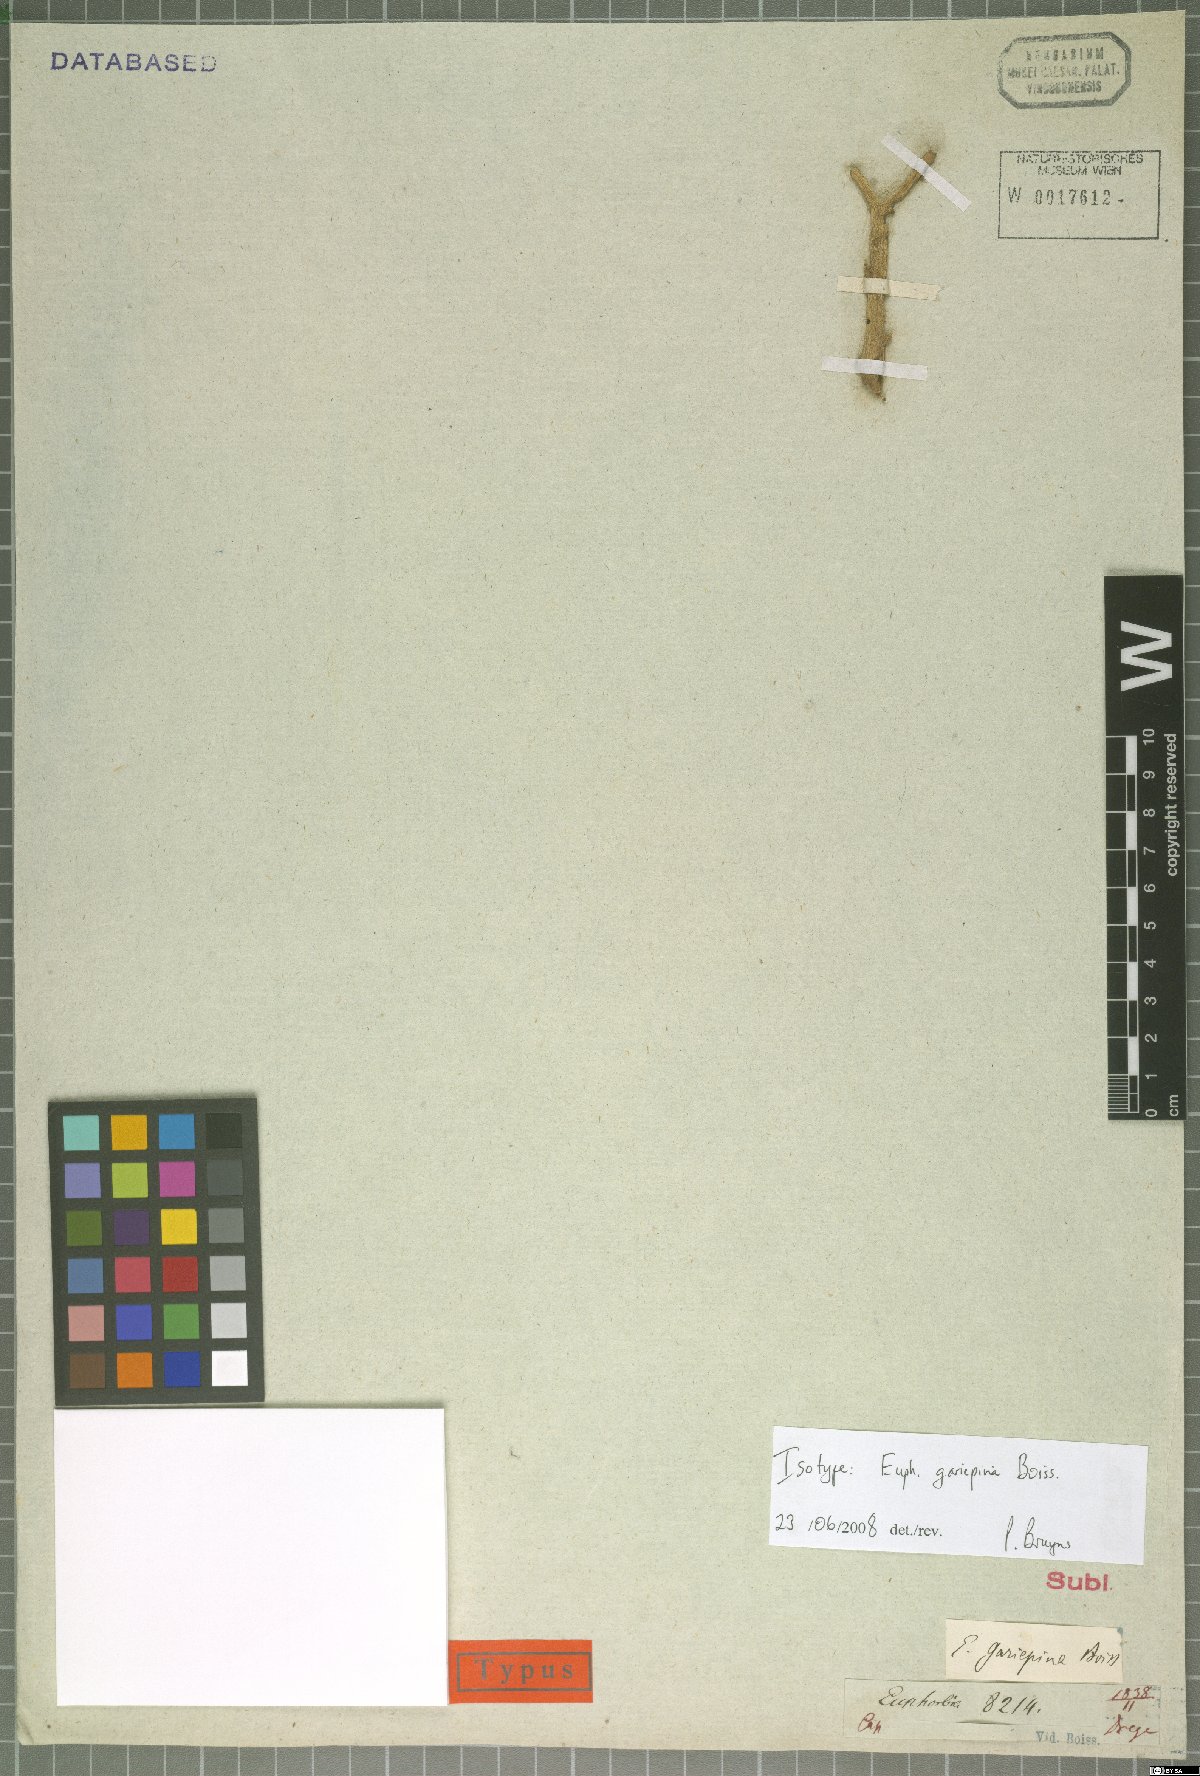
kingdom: Plantae
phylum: Tracheophyta
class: Magnoliopsida
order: Malpighiales
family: Euphorbiaceae
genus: Euphorbia
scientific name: Euphorbia gariepina
